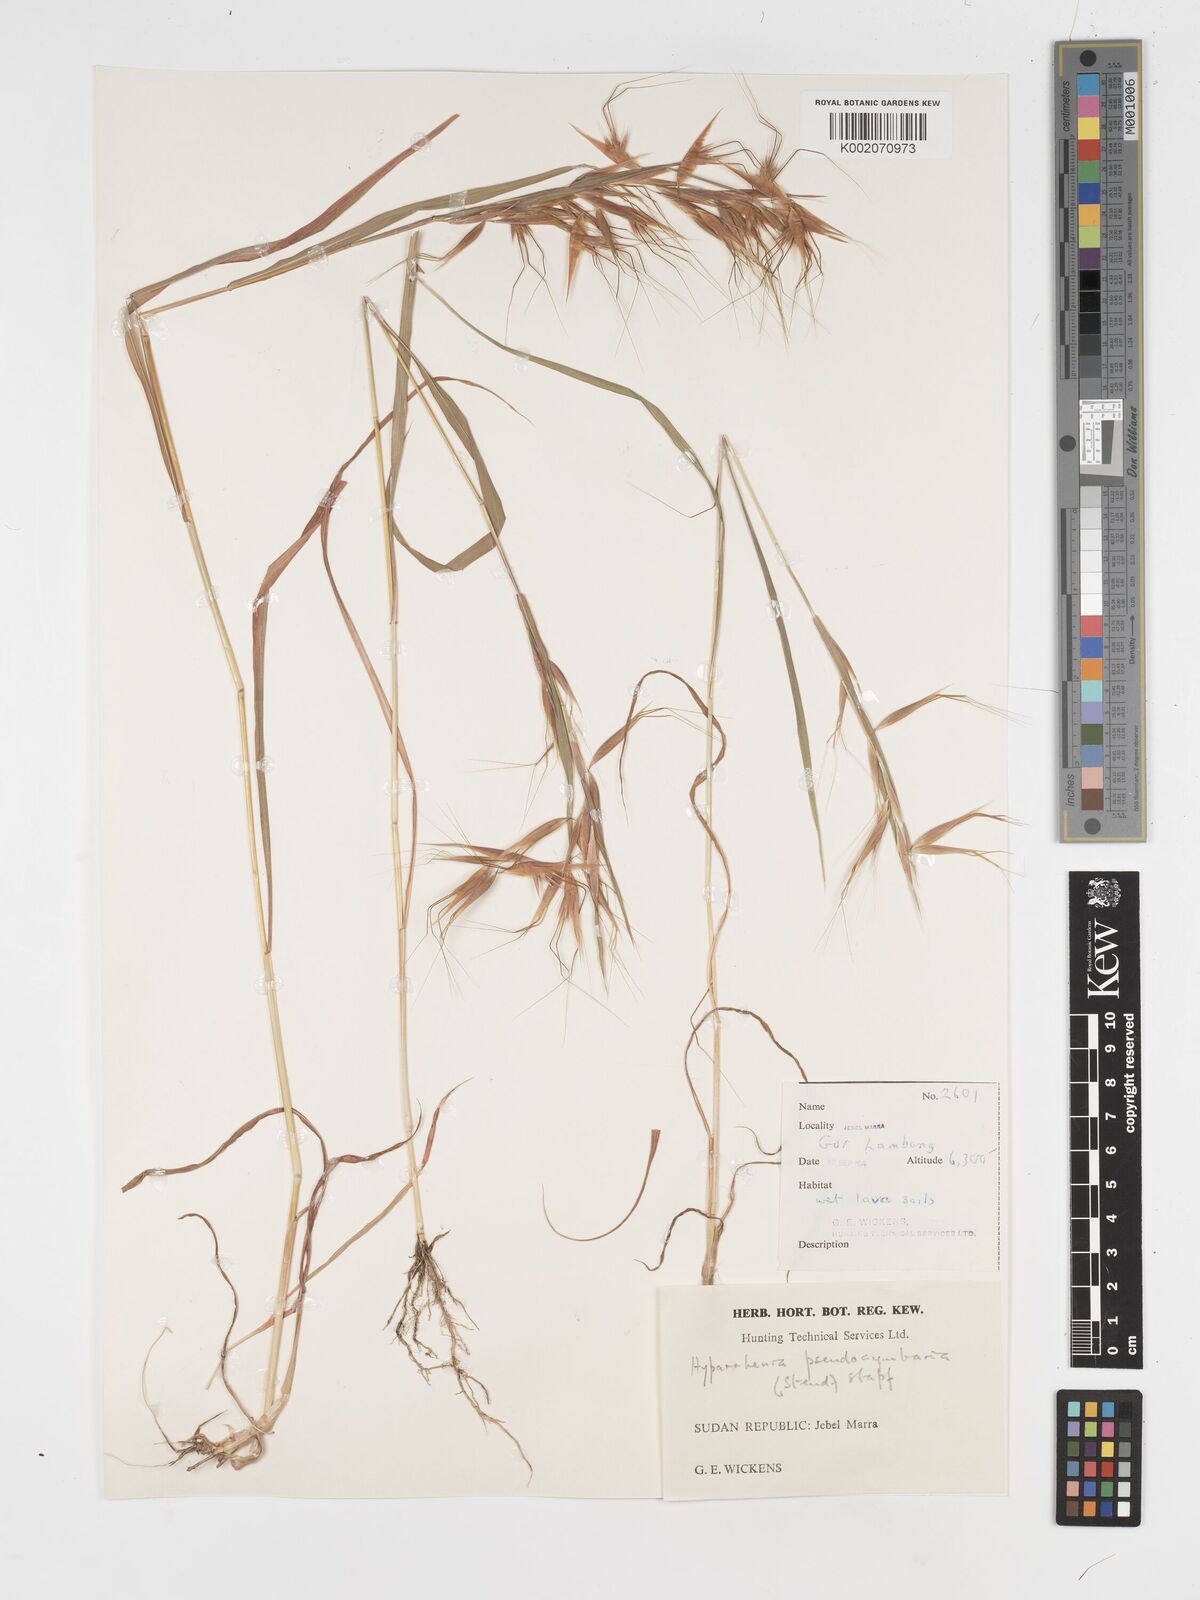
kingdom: Plantae
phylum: Tracheophyta
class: Liliopsida
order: Poales
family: Poaceae
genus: Hyparrhenia
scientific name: Hyparrhenia anthistirioides
